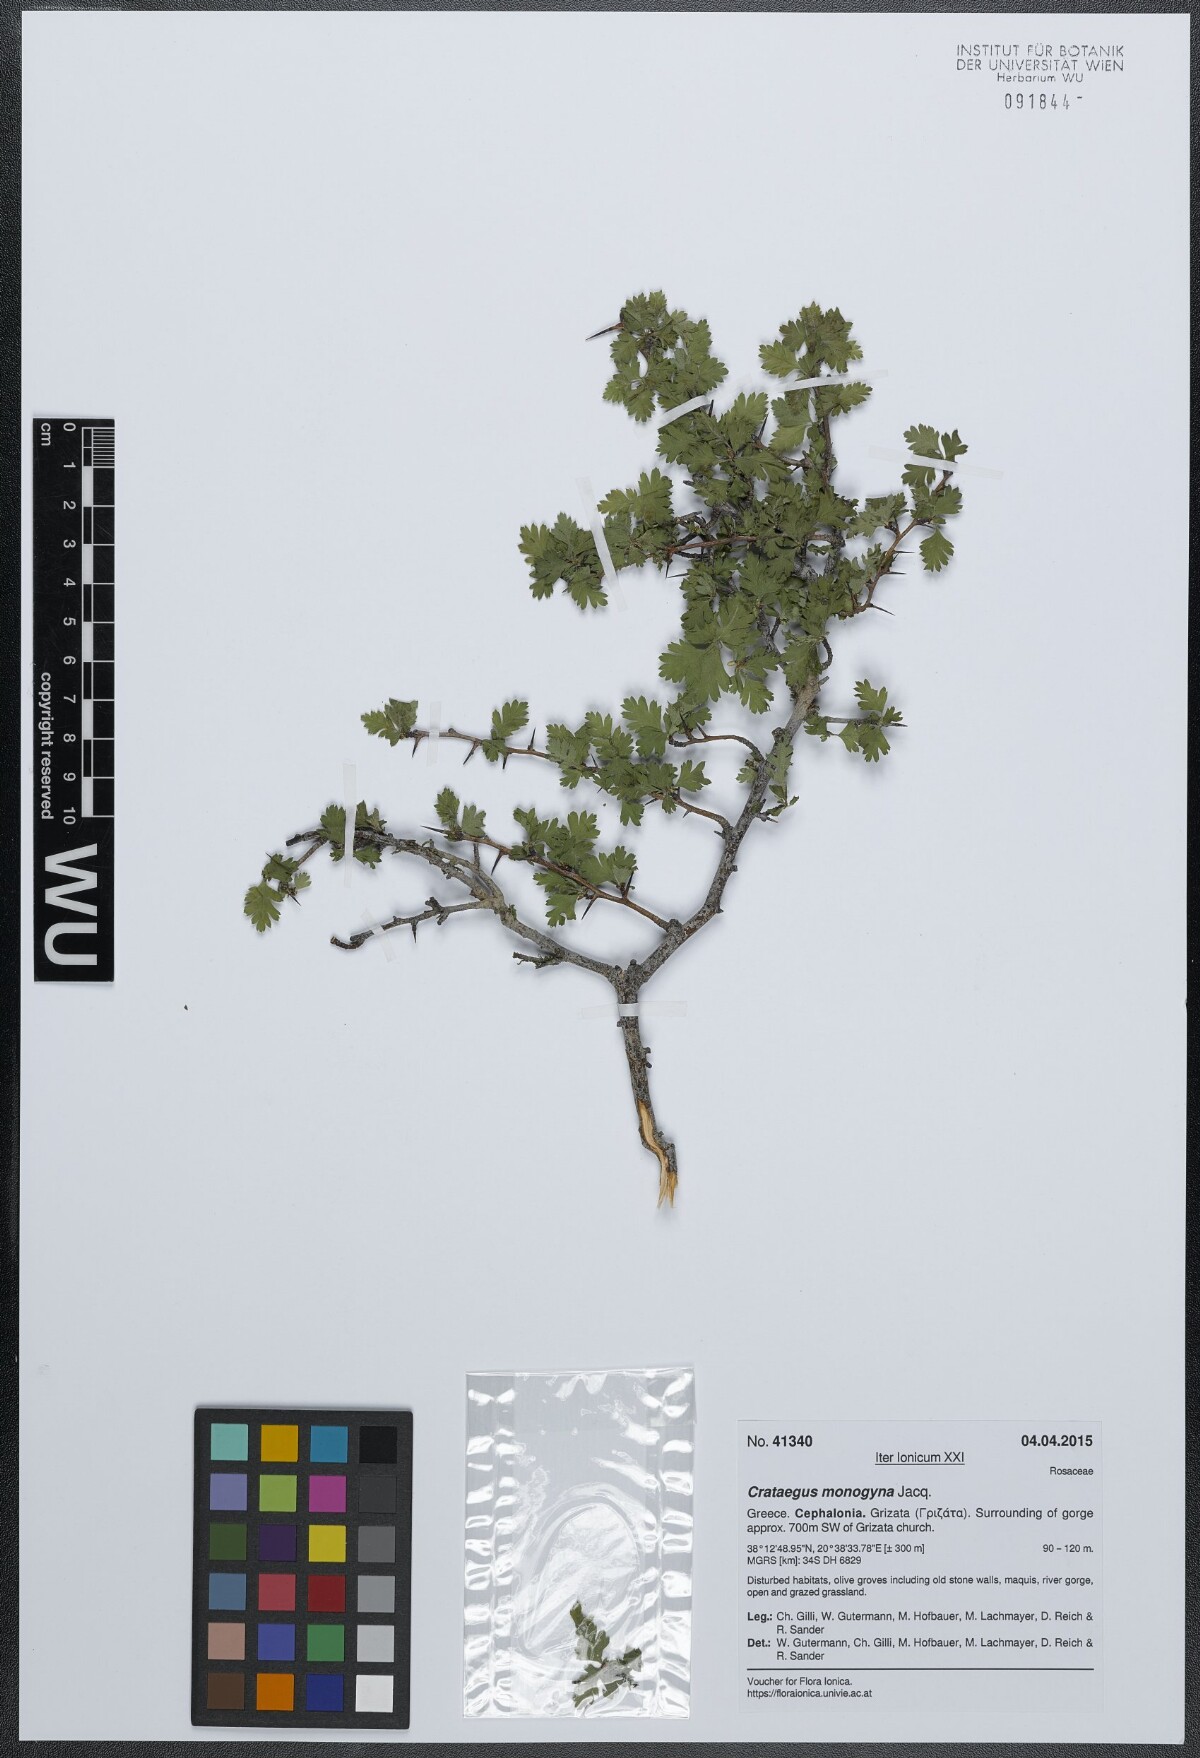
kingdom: Plantae
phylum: Tracheophyta
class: Magnoliopsida
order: Rosales
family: Rosaceae
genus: Crataegus
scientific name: Crataegus monogyna
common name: Hawthorn
